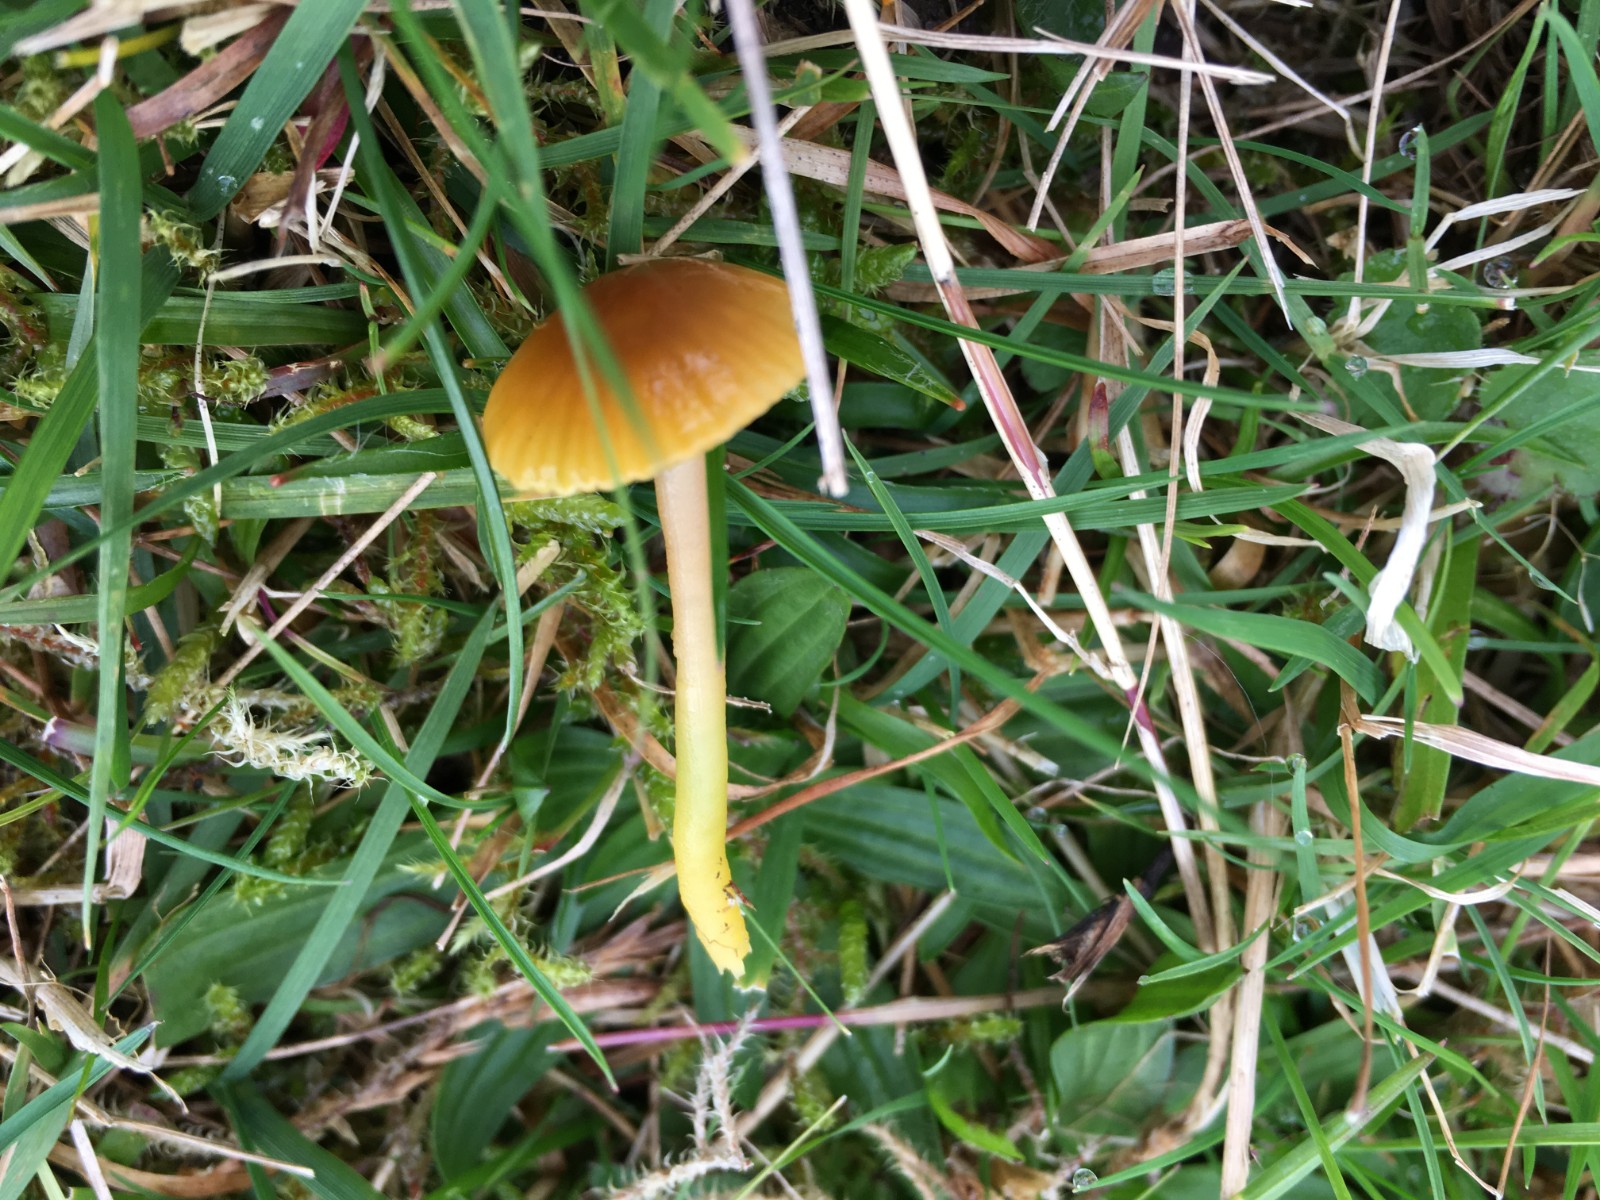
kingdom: Fungi
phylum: Basidiomycota
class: Agaricomycetes
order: Agaricales
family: Hygrophoraceae
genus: Gliophorus
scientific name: Gliophorus psittacinus
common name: papegøje-vokshat
